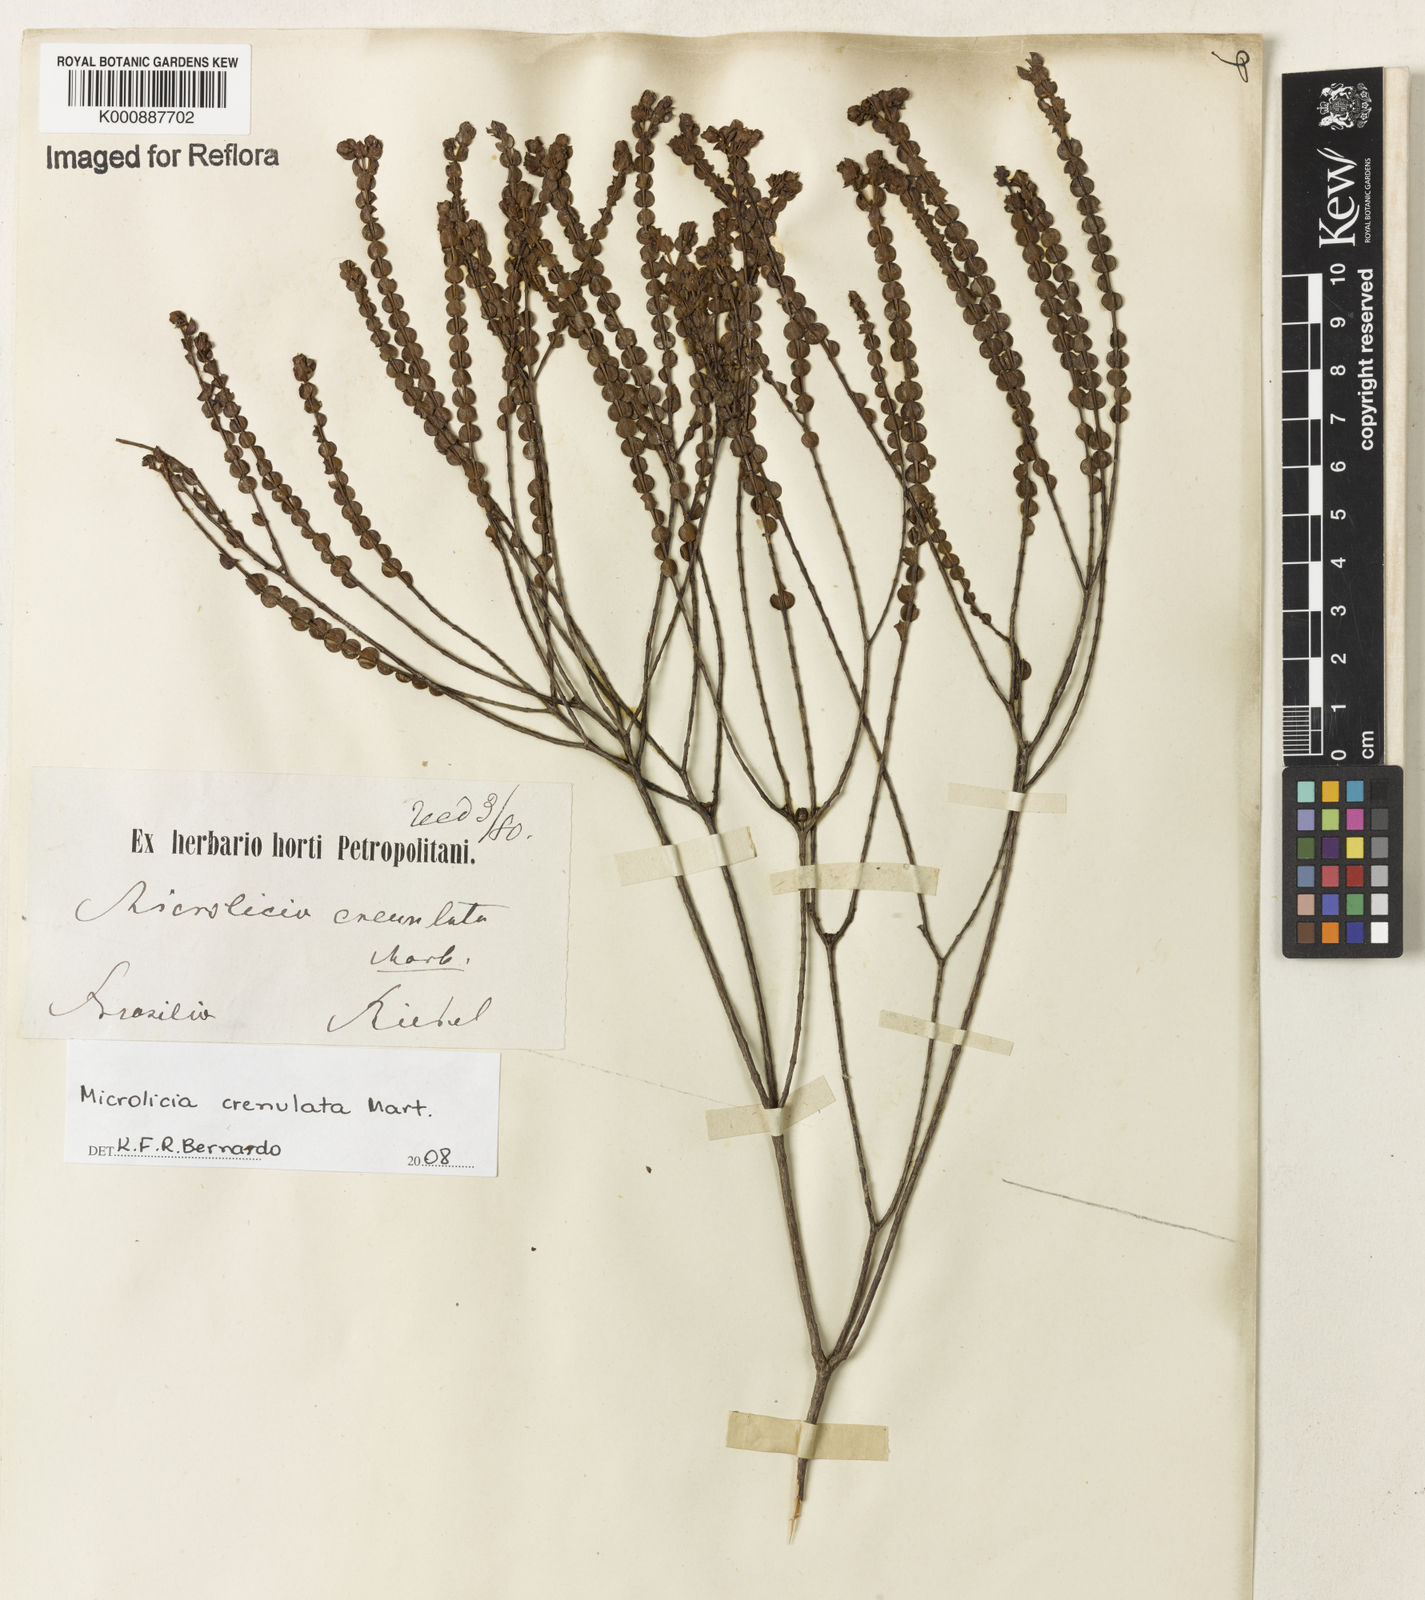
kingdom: Plantae
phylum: Tracheophyta
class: Magnoliopsida
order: Myrtales
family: Melastomataceae
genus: Microlicia
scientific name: Microlicia crenulata
